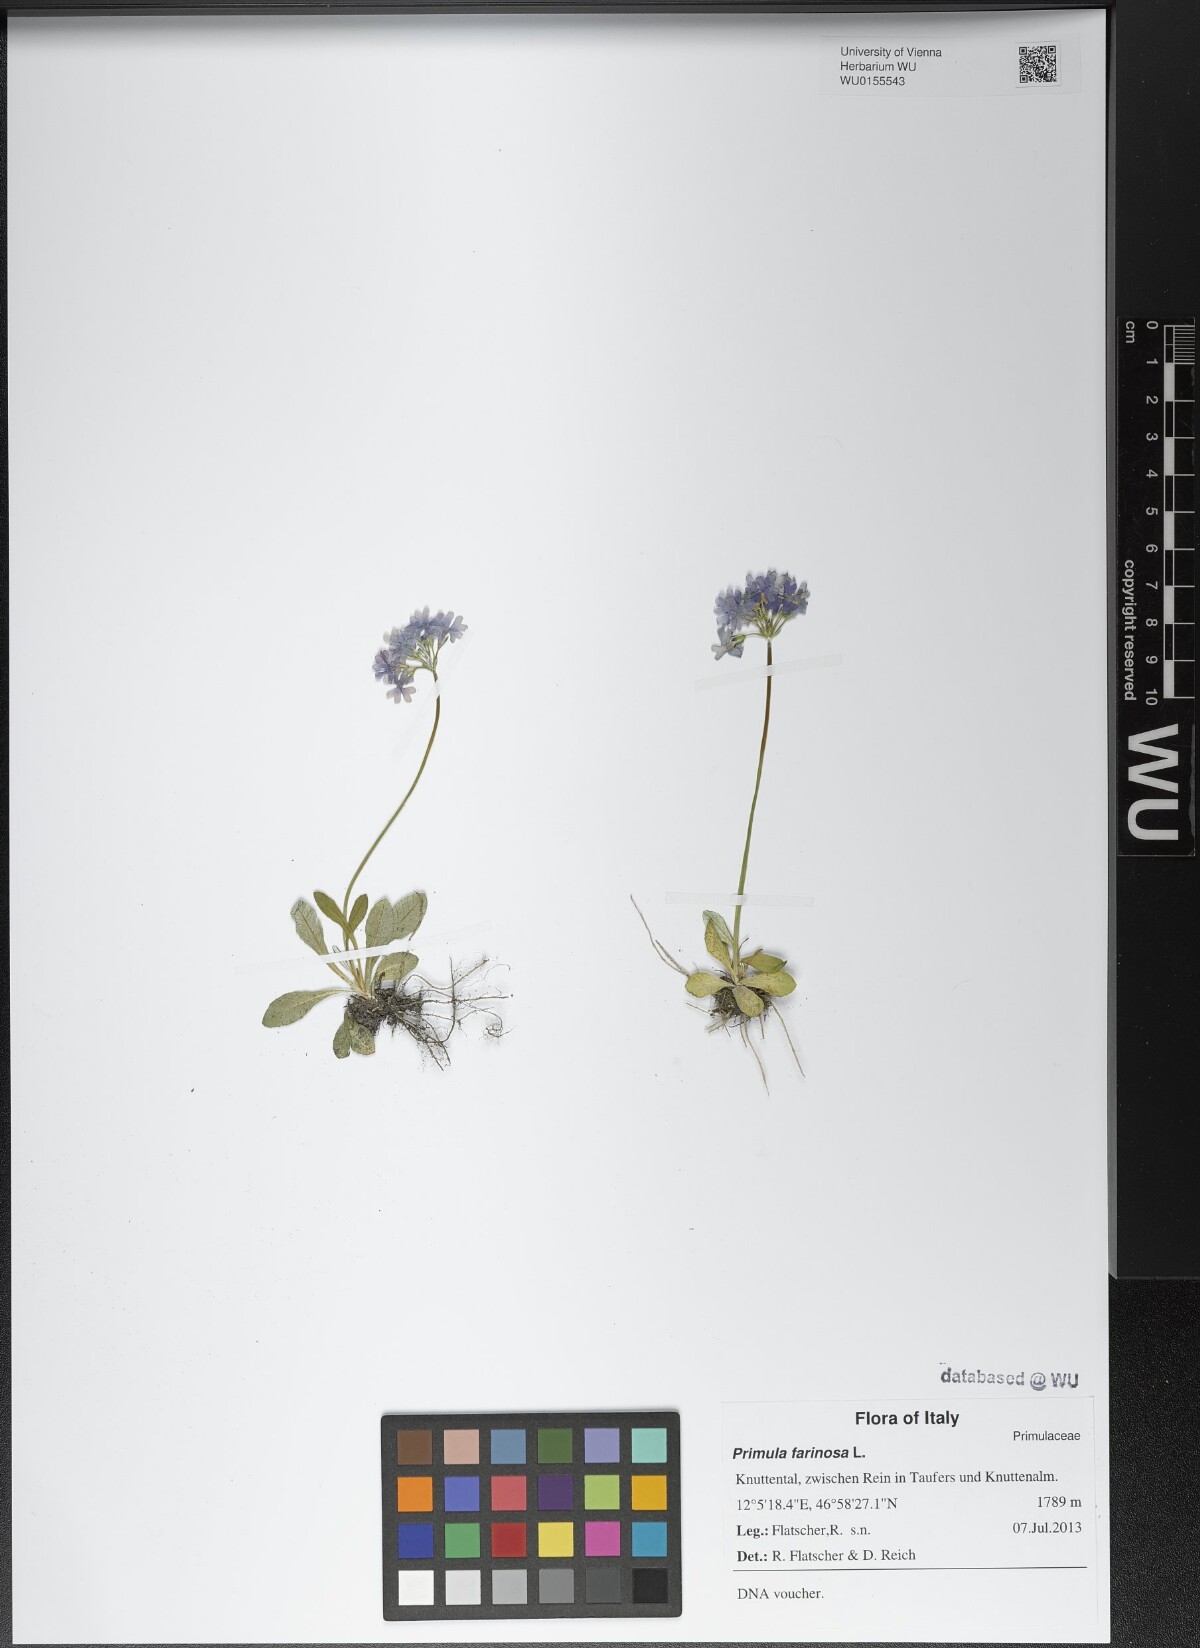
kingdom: Plantae
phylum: Tracheophyta
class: Magnoliopsida
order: Ericales
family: Primulaceae
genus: Primula
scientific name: Primula farinosa
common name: Bird's-eye primrose
